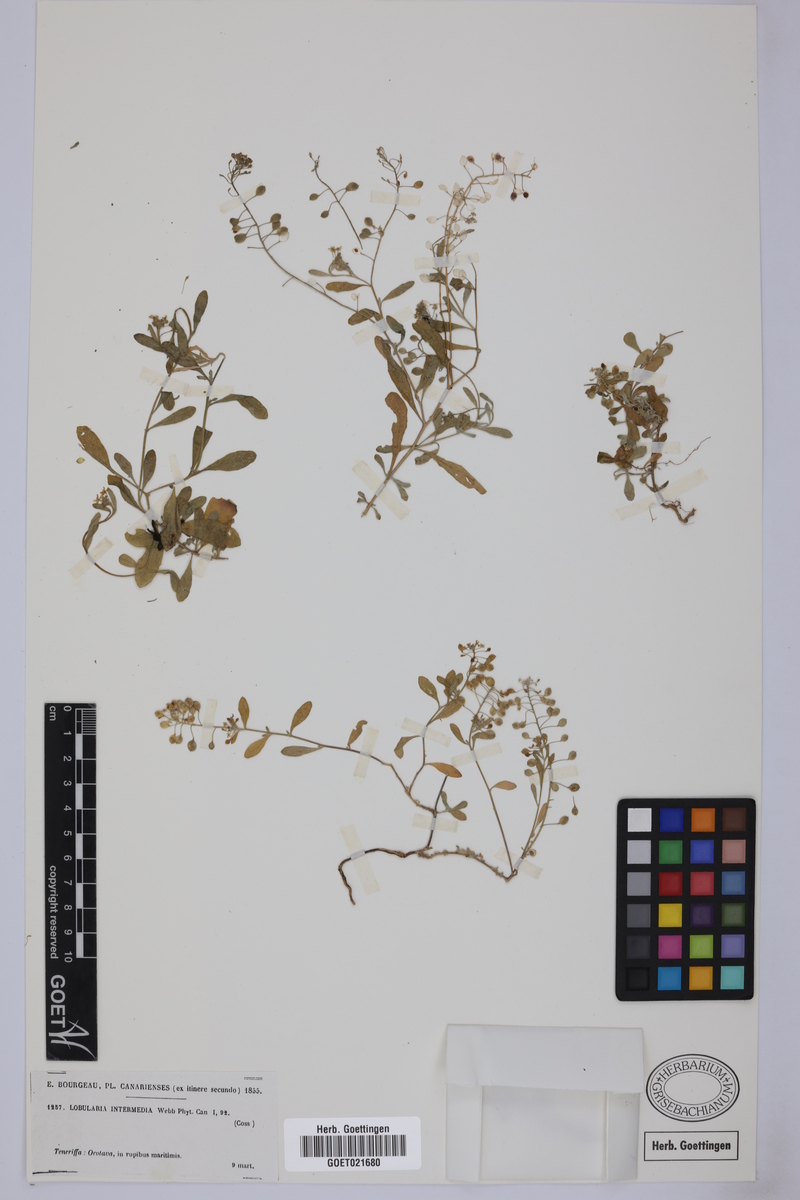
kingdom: Plantae
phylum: Tracheophyta
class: Magnoliopsida
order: Brassicales
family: Brassicaceae
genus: Lobularia
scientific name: Lobularia canariensis
